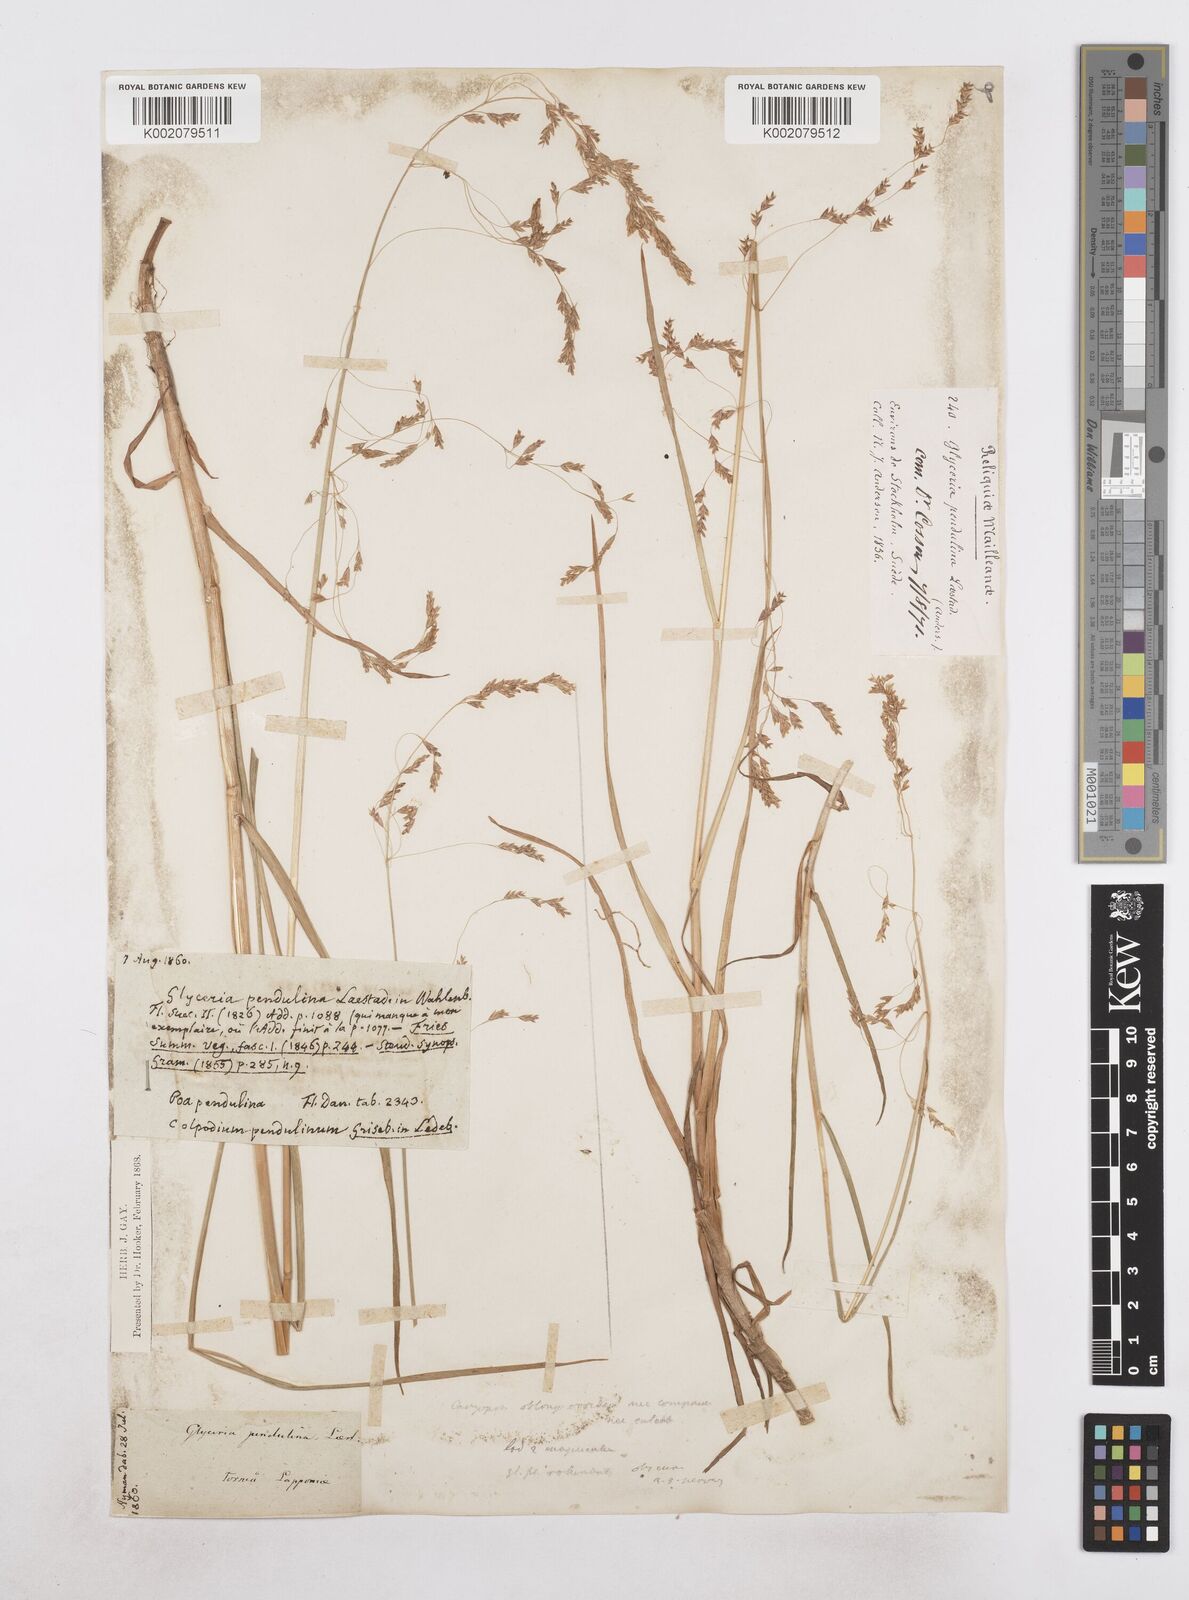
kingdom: Plantae
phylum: Tracheophyta
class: Liliopsida
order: Poales
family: Poaceae
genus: Dupontia
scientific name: Dupontia fulva
